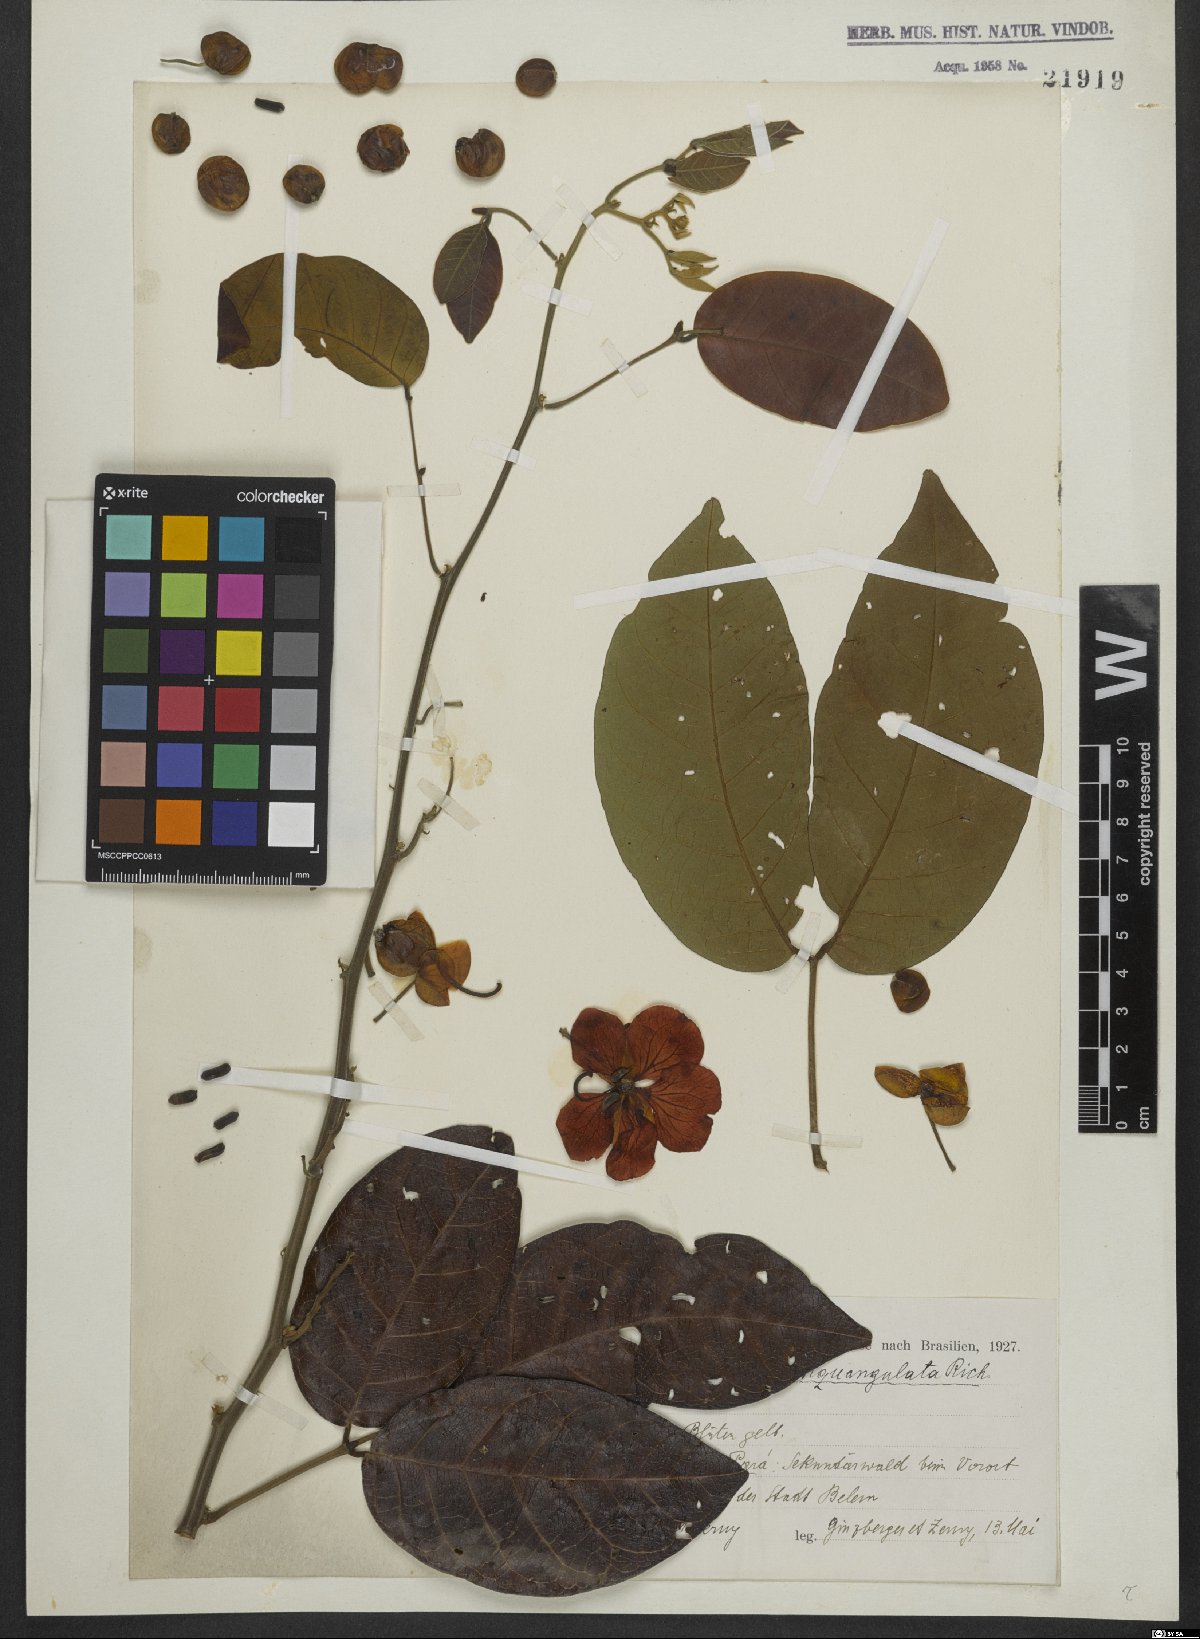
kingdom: Plantae
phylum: Tracheophyta
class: Magnoliopsida
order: Fabales
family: Fabaceae
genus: Senna
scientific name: Senna quinquangulata
